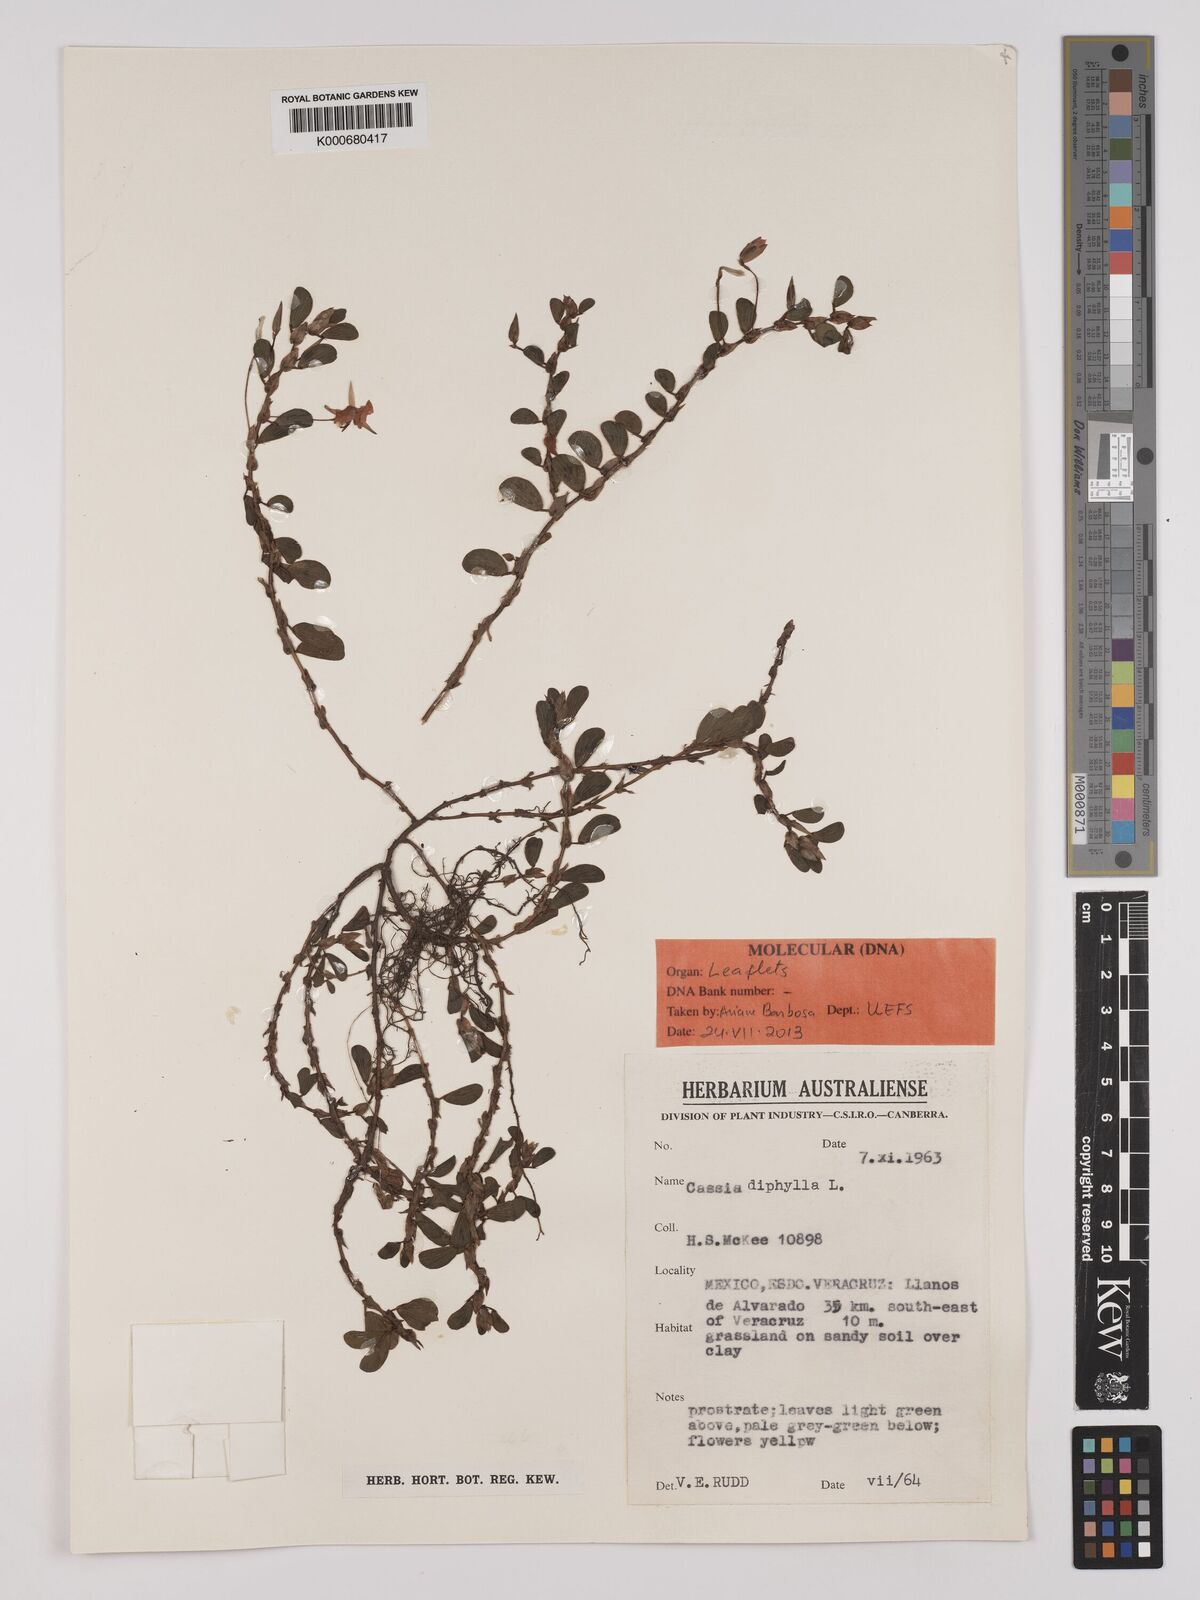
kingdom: Plantae
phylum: Tracheophyta
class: Magnoliopsida
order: Fabales
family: Fabaceae
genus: Chamaecrista
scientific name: Chamaecrista diphylla
